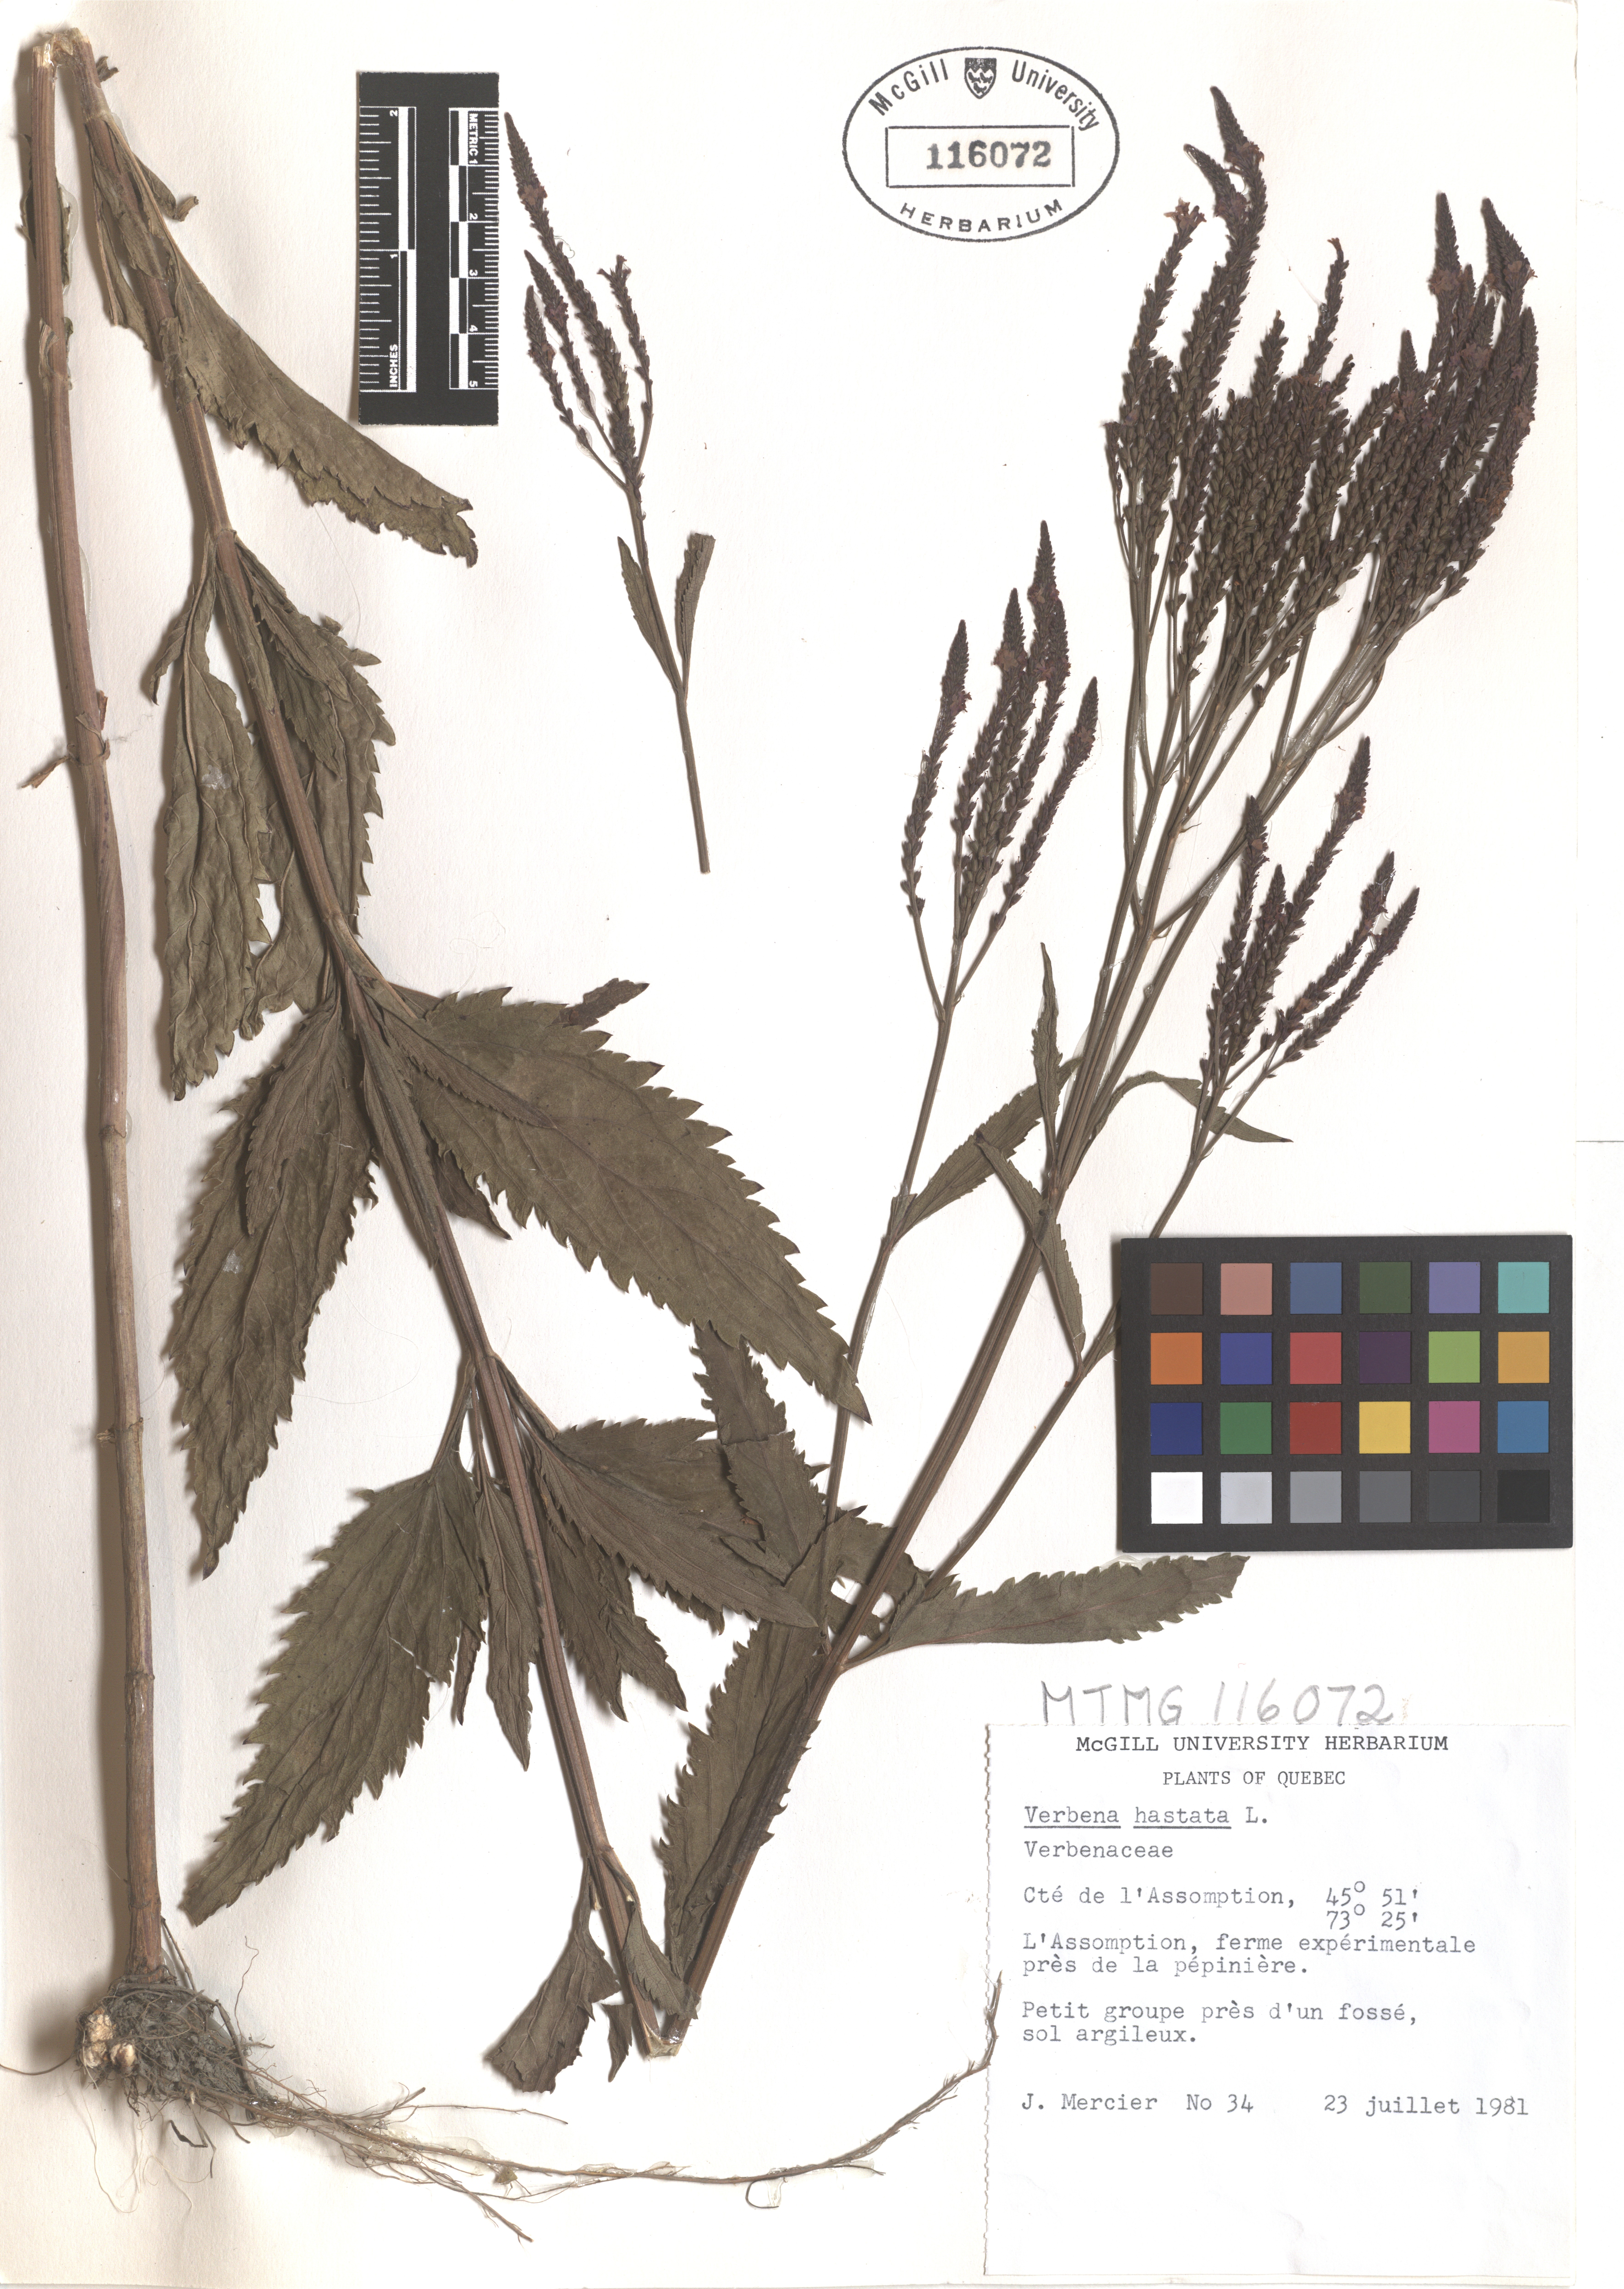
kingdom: Plantae
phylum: Tracheophyta
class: Magnoliopsida
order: Lamiales
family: Verbenaceae
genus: Verbena
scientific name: Verbena hastata
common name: American blue vervain
